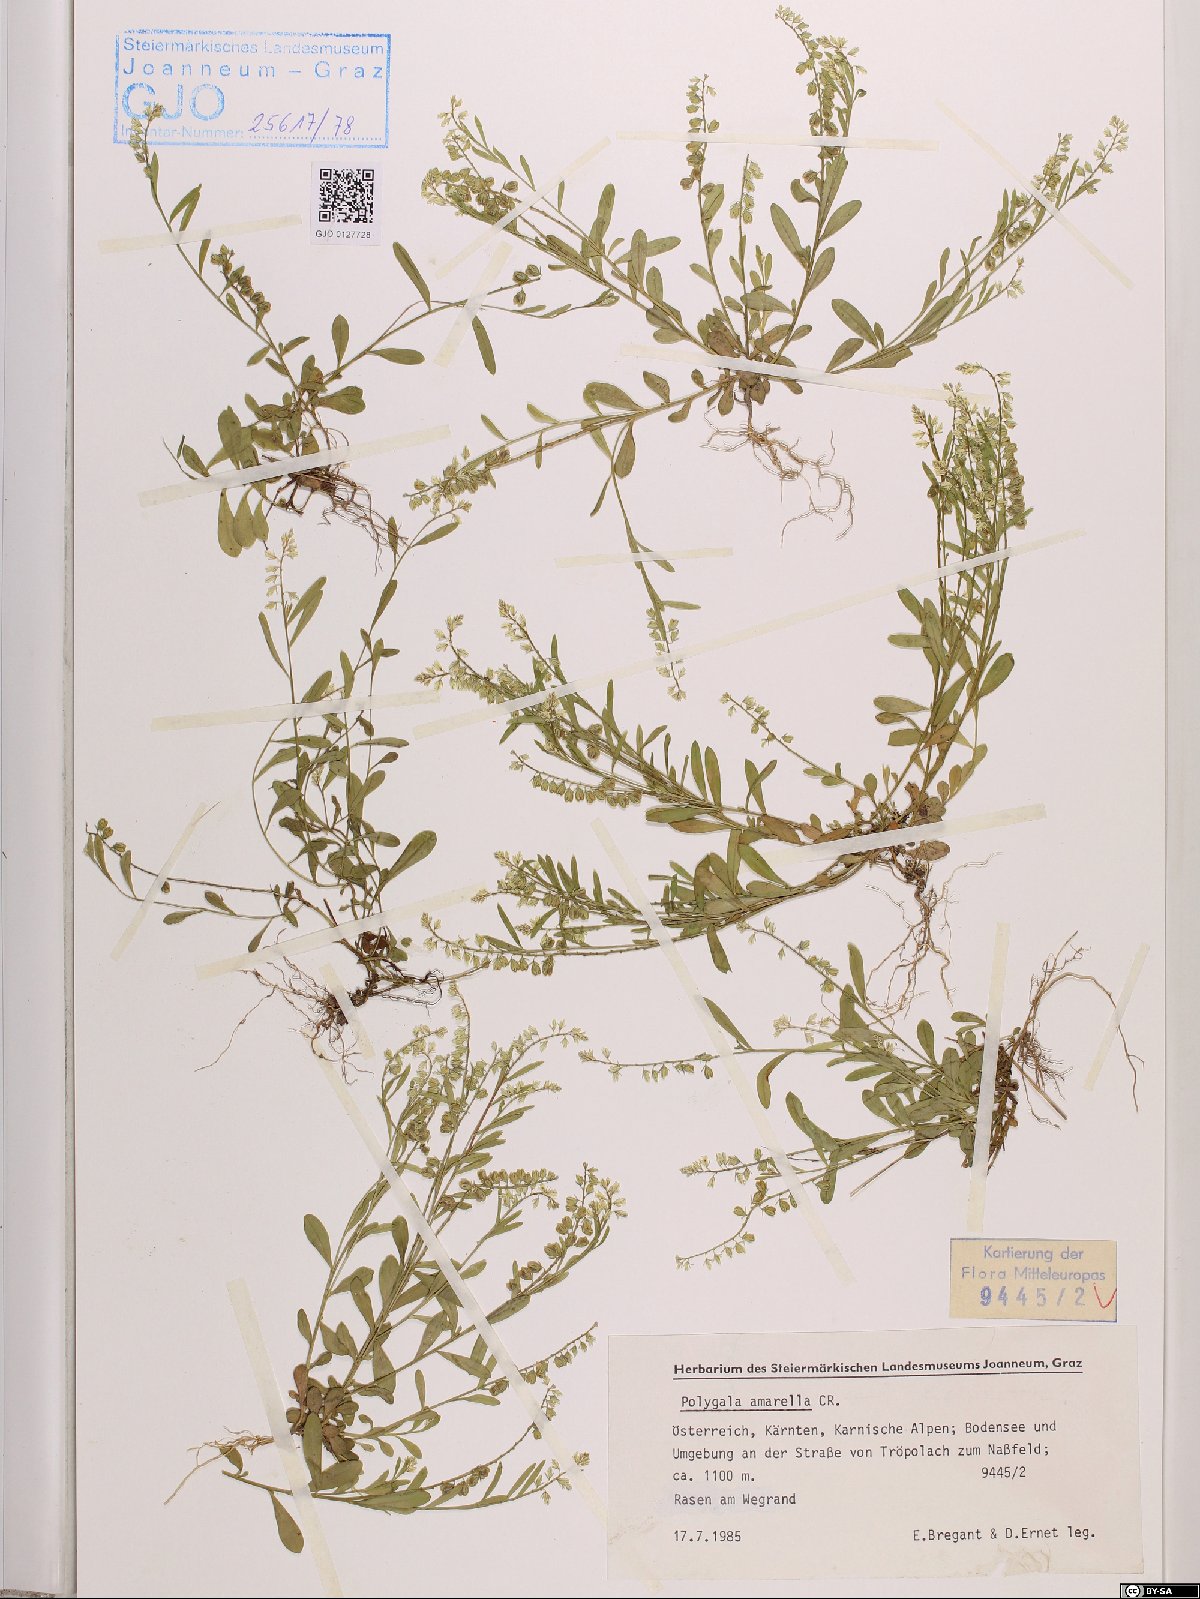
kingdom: Plantae
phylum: Tracheophyta
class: Magnoliopsida
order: Fabales
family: Polygalaceae
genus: Polygala
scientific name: Polygala amarella
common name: Dwarf milkwort
